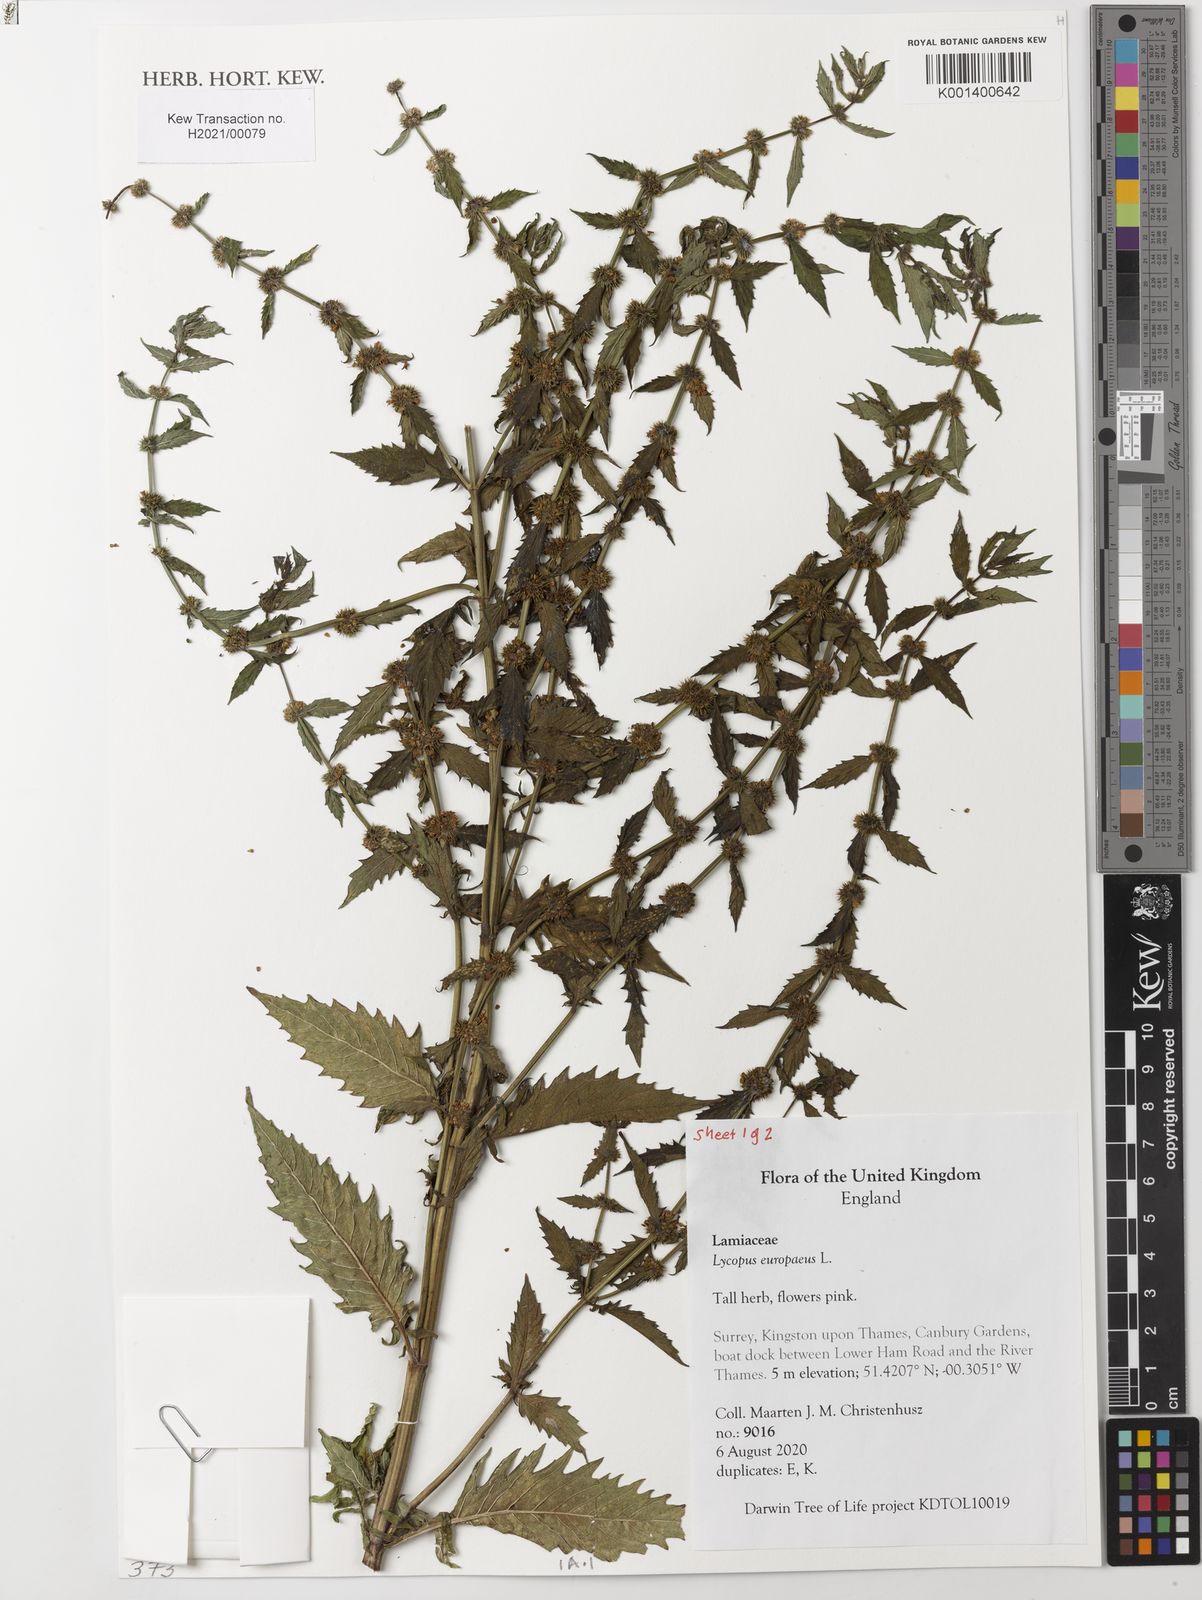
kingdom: Plantae
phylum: Tracheophyta
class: Magnoliopsida
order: Lamiales
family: Lamiaceae
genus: Lycopus
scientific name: Lycopus europaeus
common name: European bugleweed
